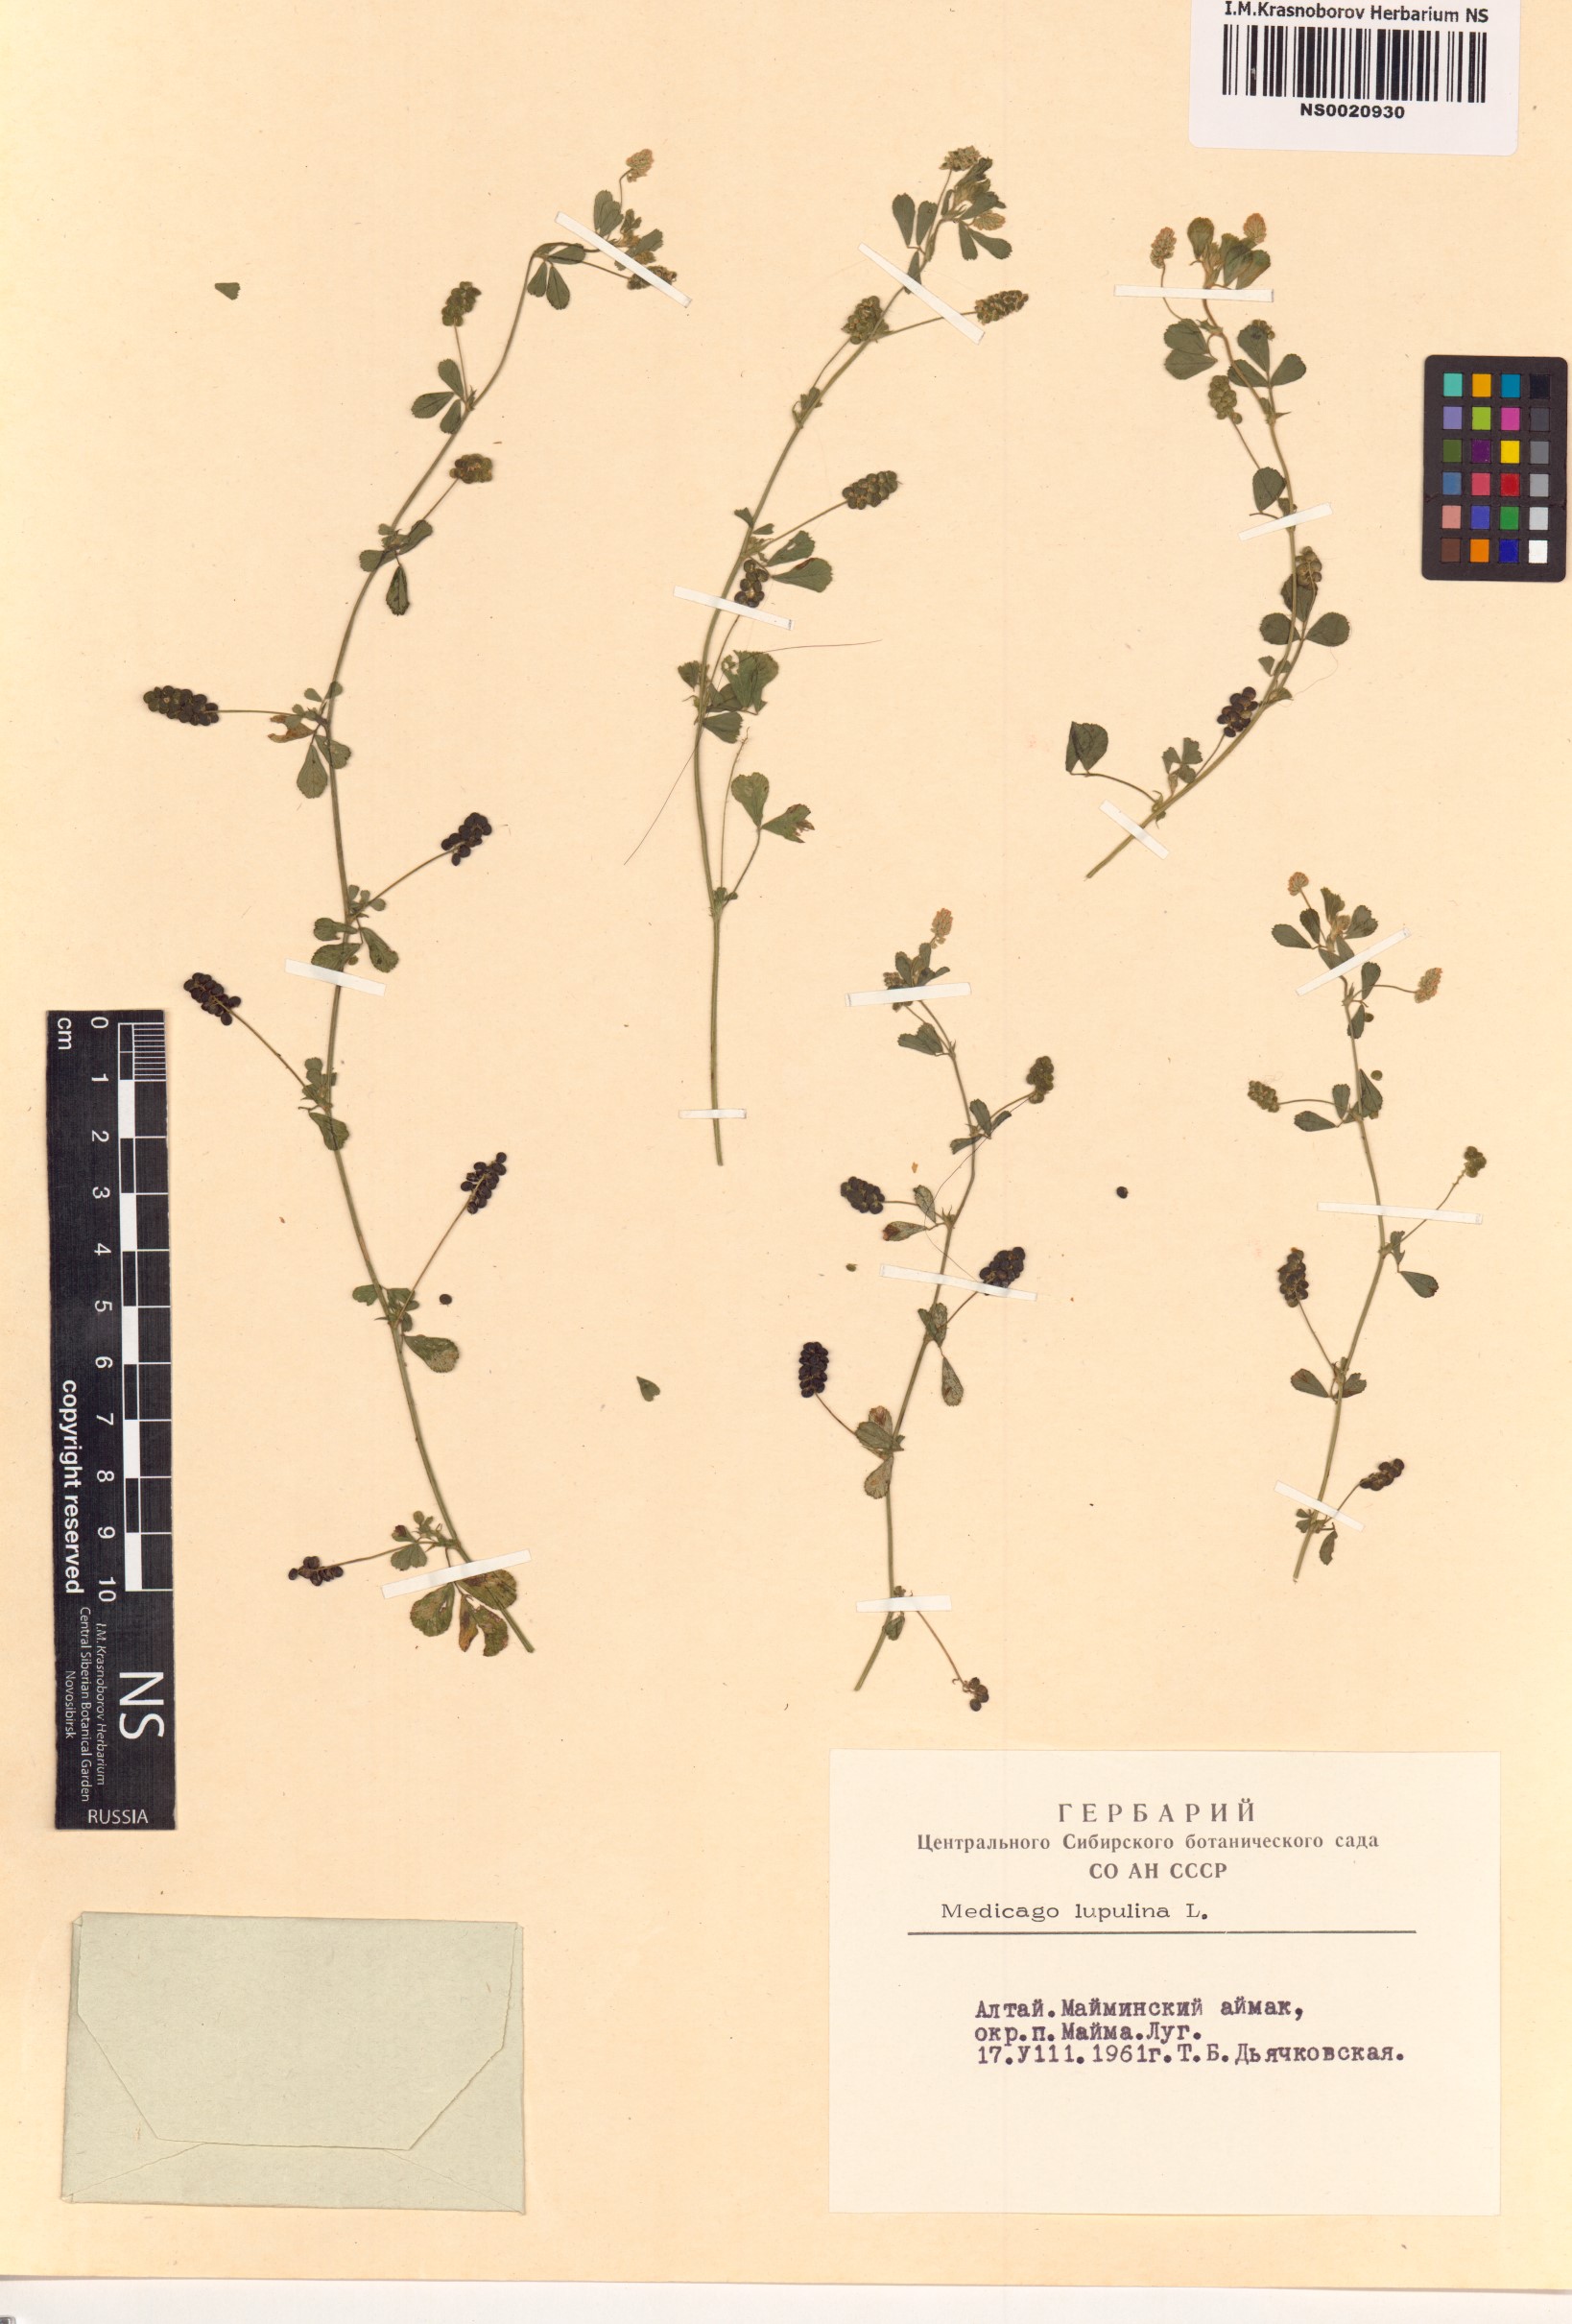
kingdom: Plantae
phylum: Tracheophyta
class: Magnoliopsida
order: Fabales
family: Fabaceae
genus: Medicago
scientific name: Medicago lupulina
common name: Black medick
